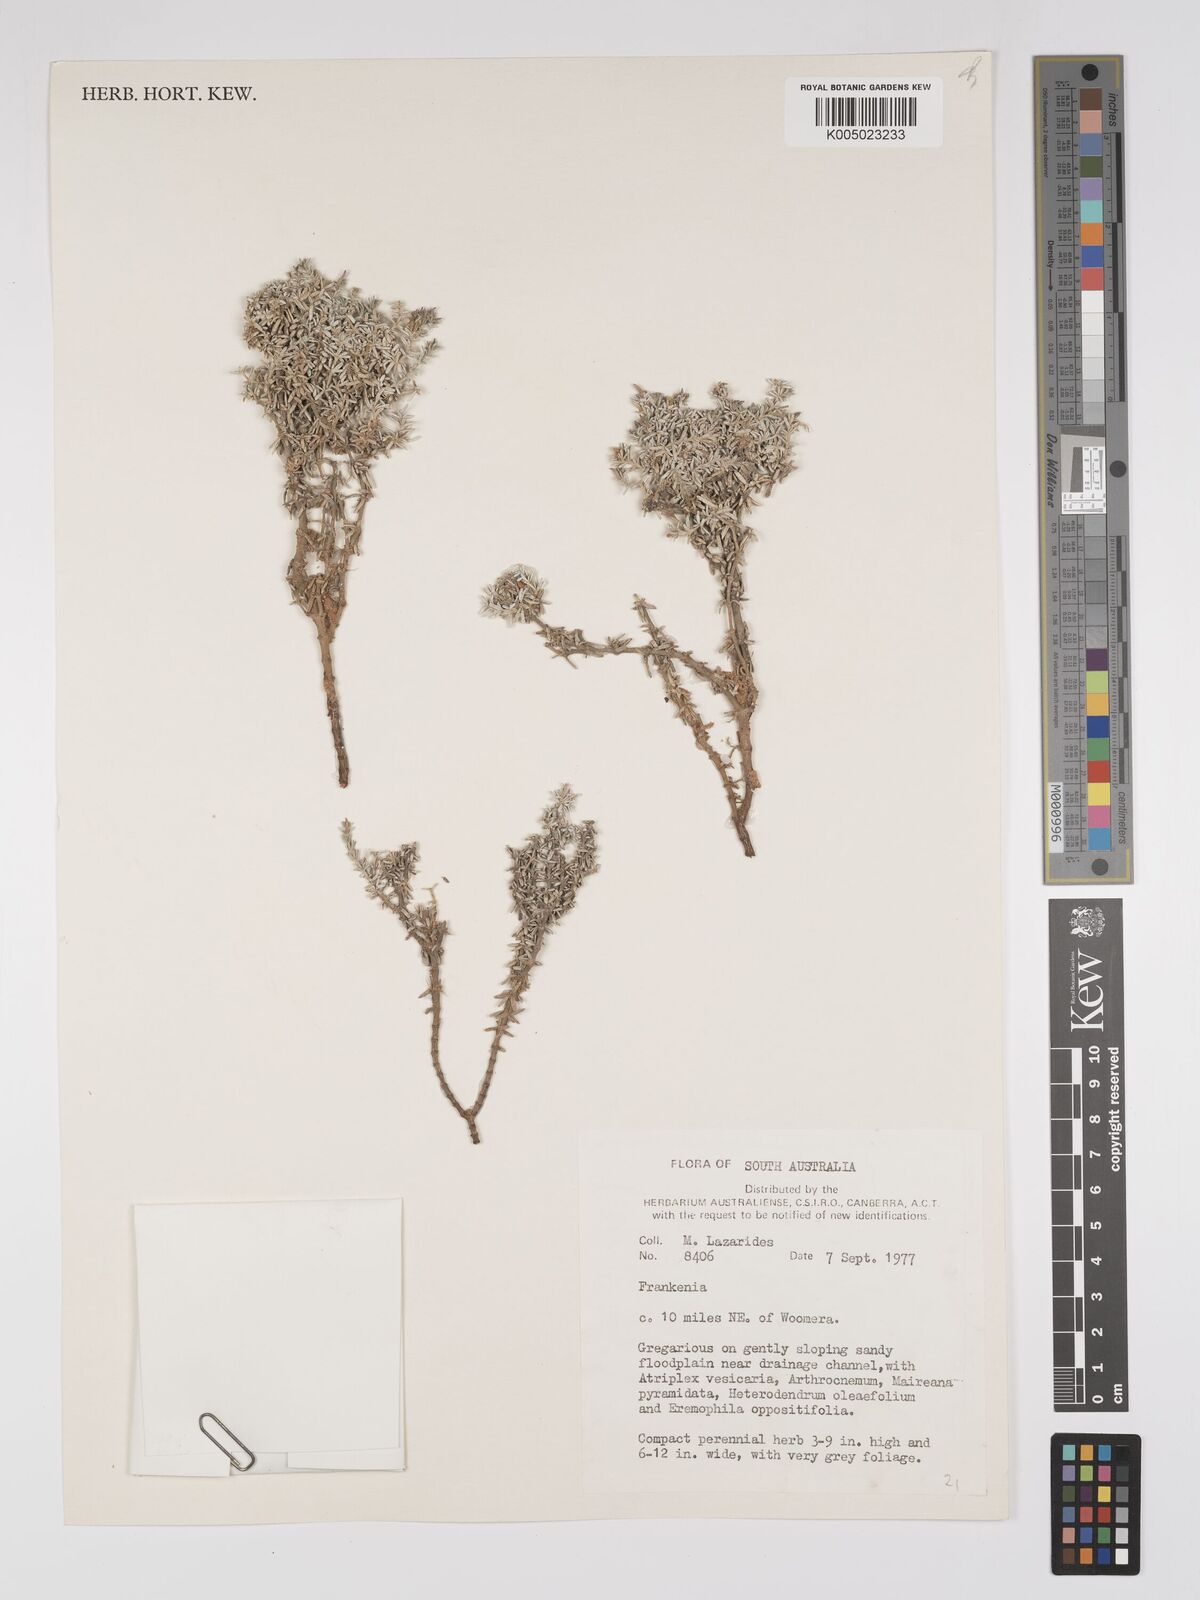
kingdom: Plantae
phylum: Tracheophyta
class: Magnoliopsida
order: Caryophyllales
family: Frankeniaceae
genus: Frankenia
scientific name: Frankenia
